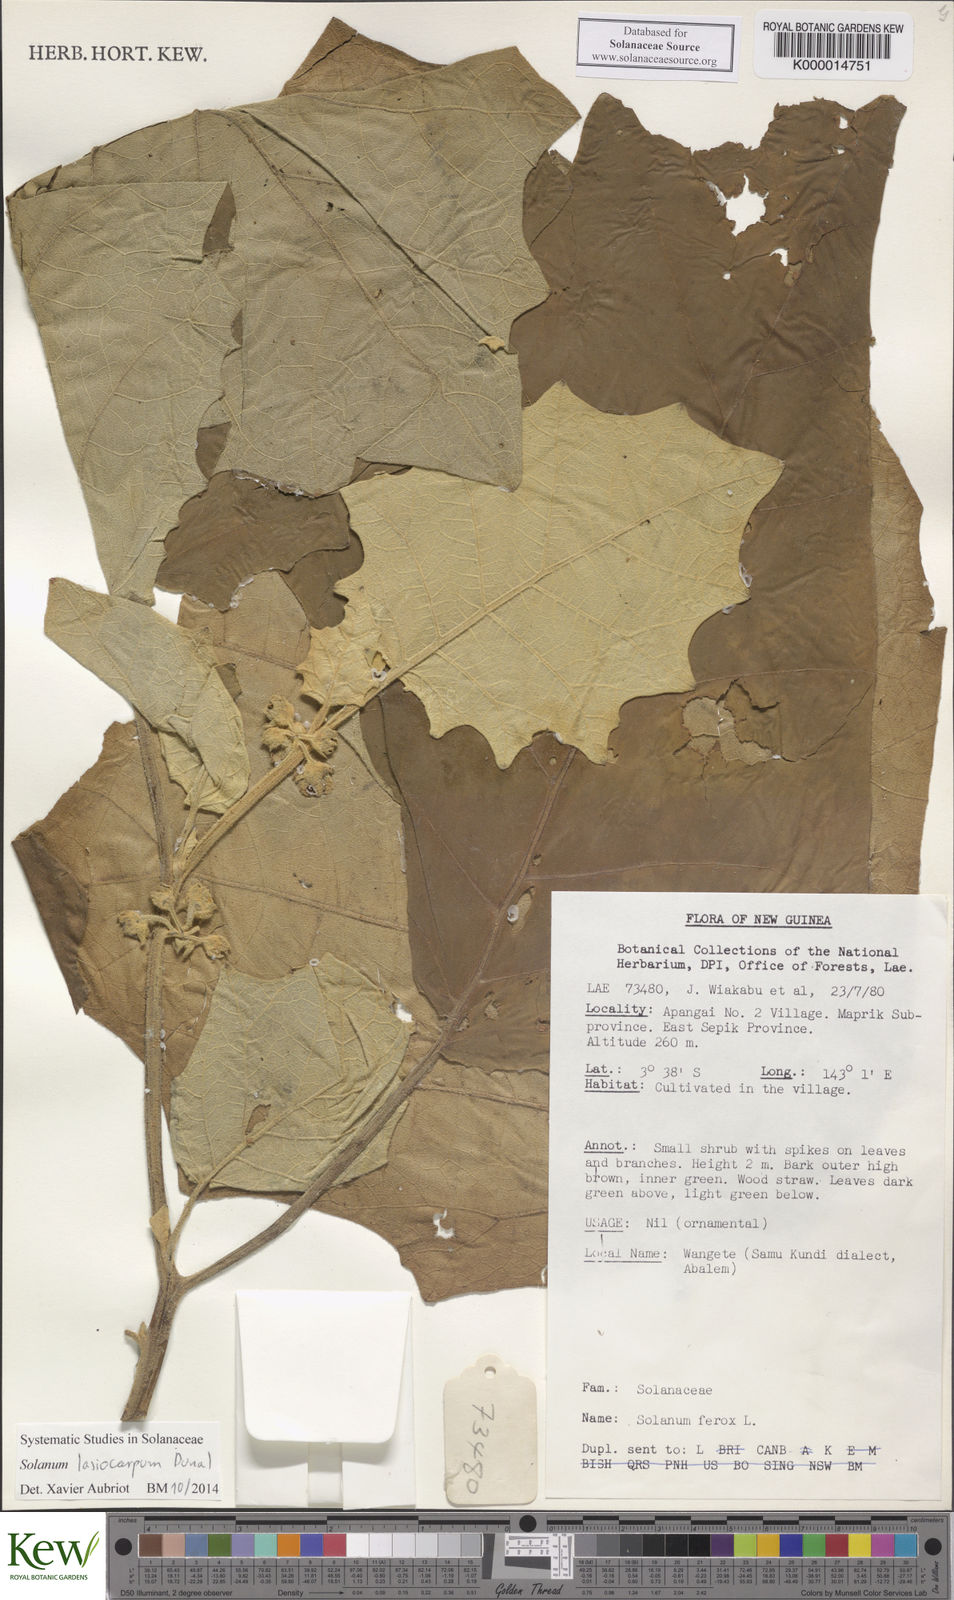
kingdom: Plantae
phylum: Tracheophyta
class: Magnoliopsida
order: Solanales
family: Solanaceae
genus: Solanum
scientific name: Solanum lasiocarpum
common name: Indian nightshade
